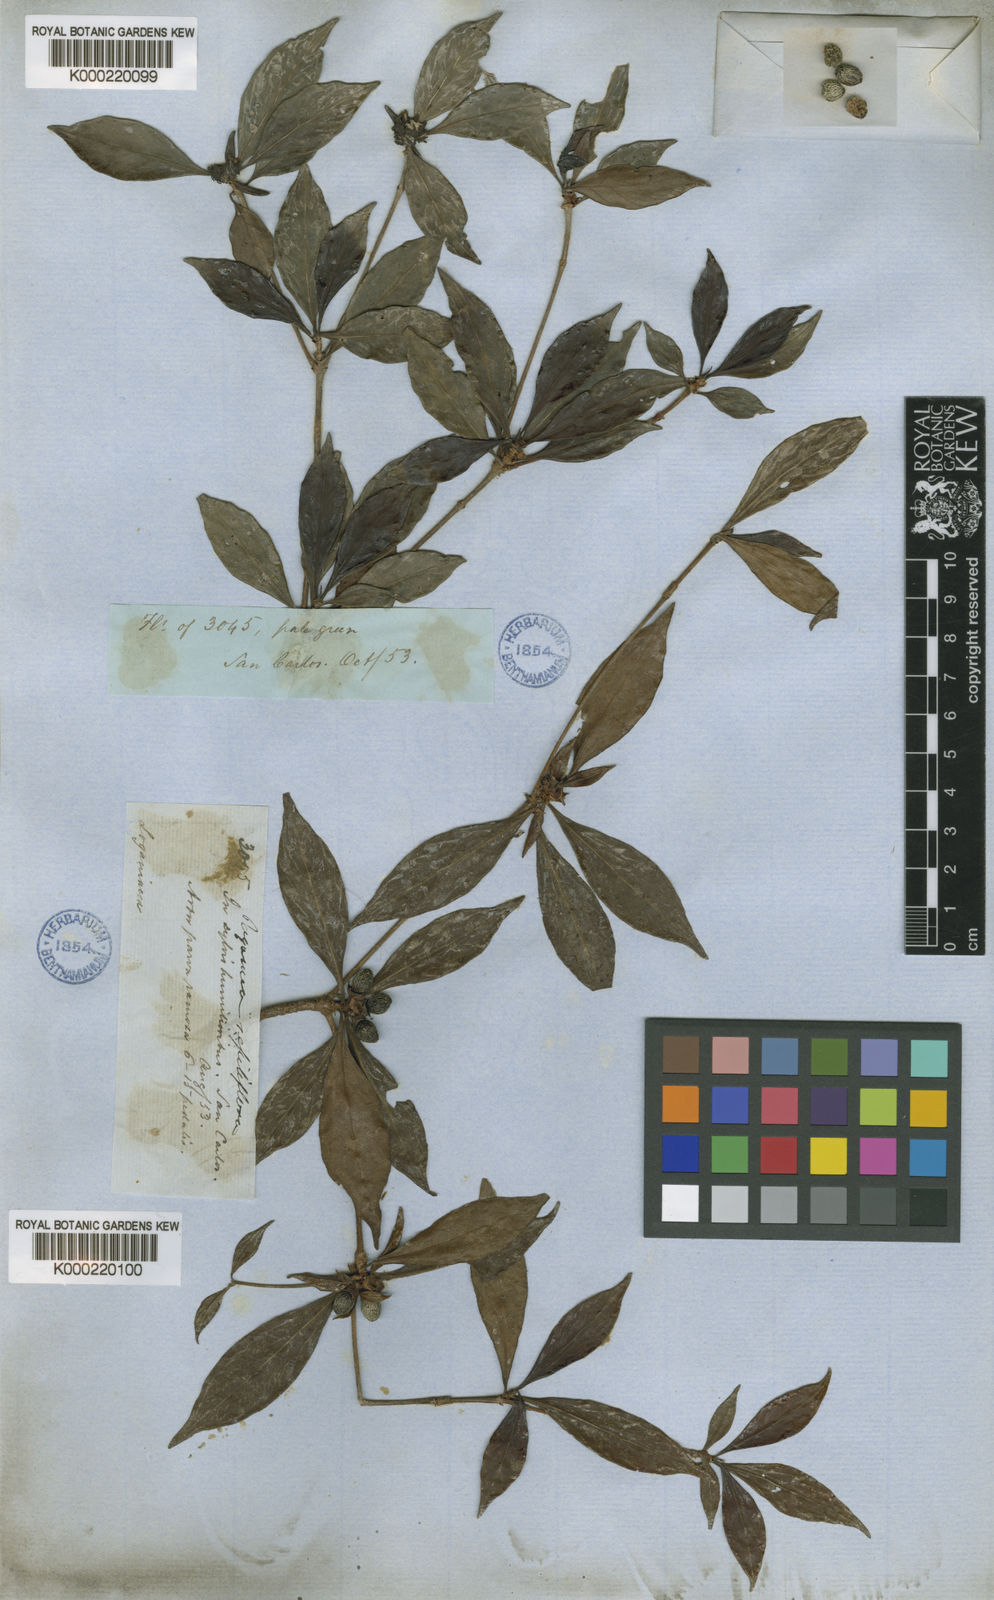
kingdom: Plantae
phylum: Tracheophyta
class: Magnoliopsida
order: Gentianales
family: Rubiaceae
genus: Pagamea
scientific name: Pagamea sessiliflora
